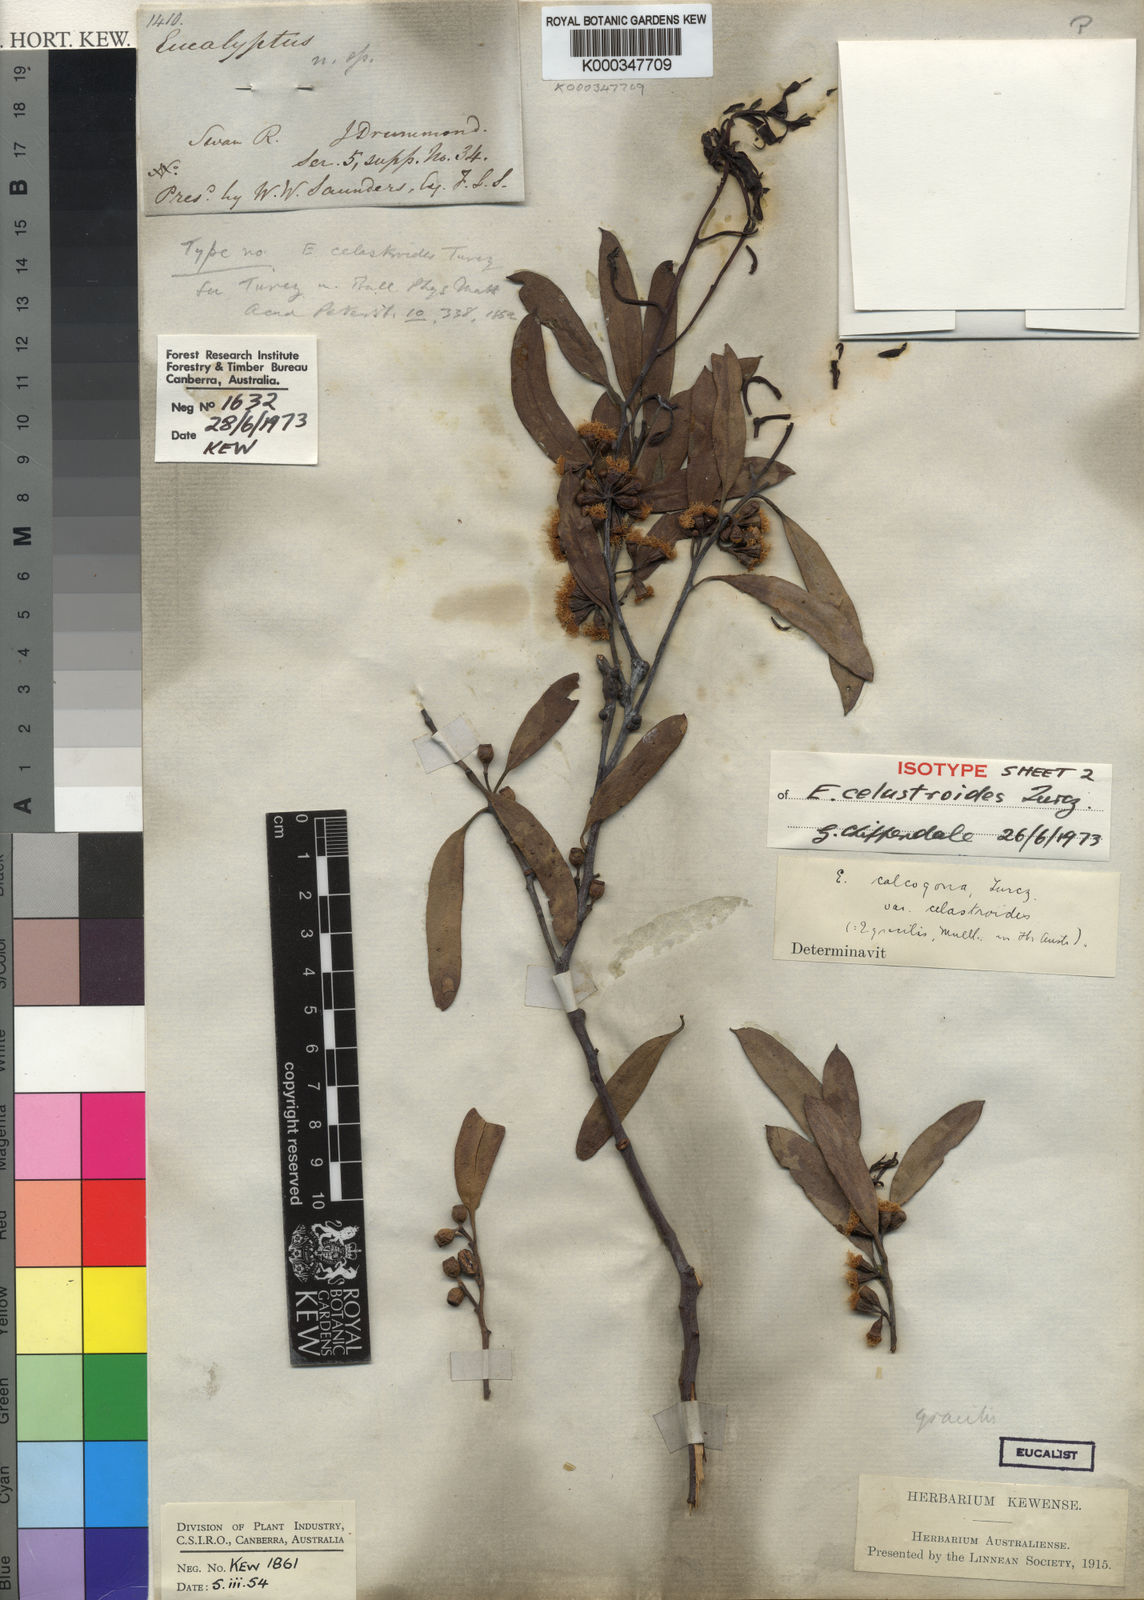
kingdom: Plantae
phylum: Tracheophyta
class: Magnoliopsida
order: Myrtales
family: Myrtaceae
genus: Eucalyptus
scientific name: Eucalyptus celastroides
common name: Mirret
